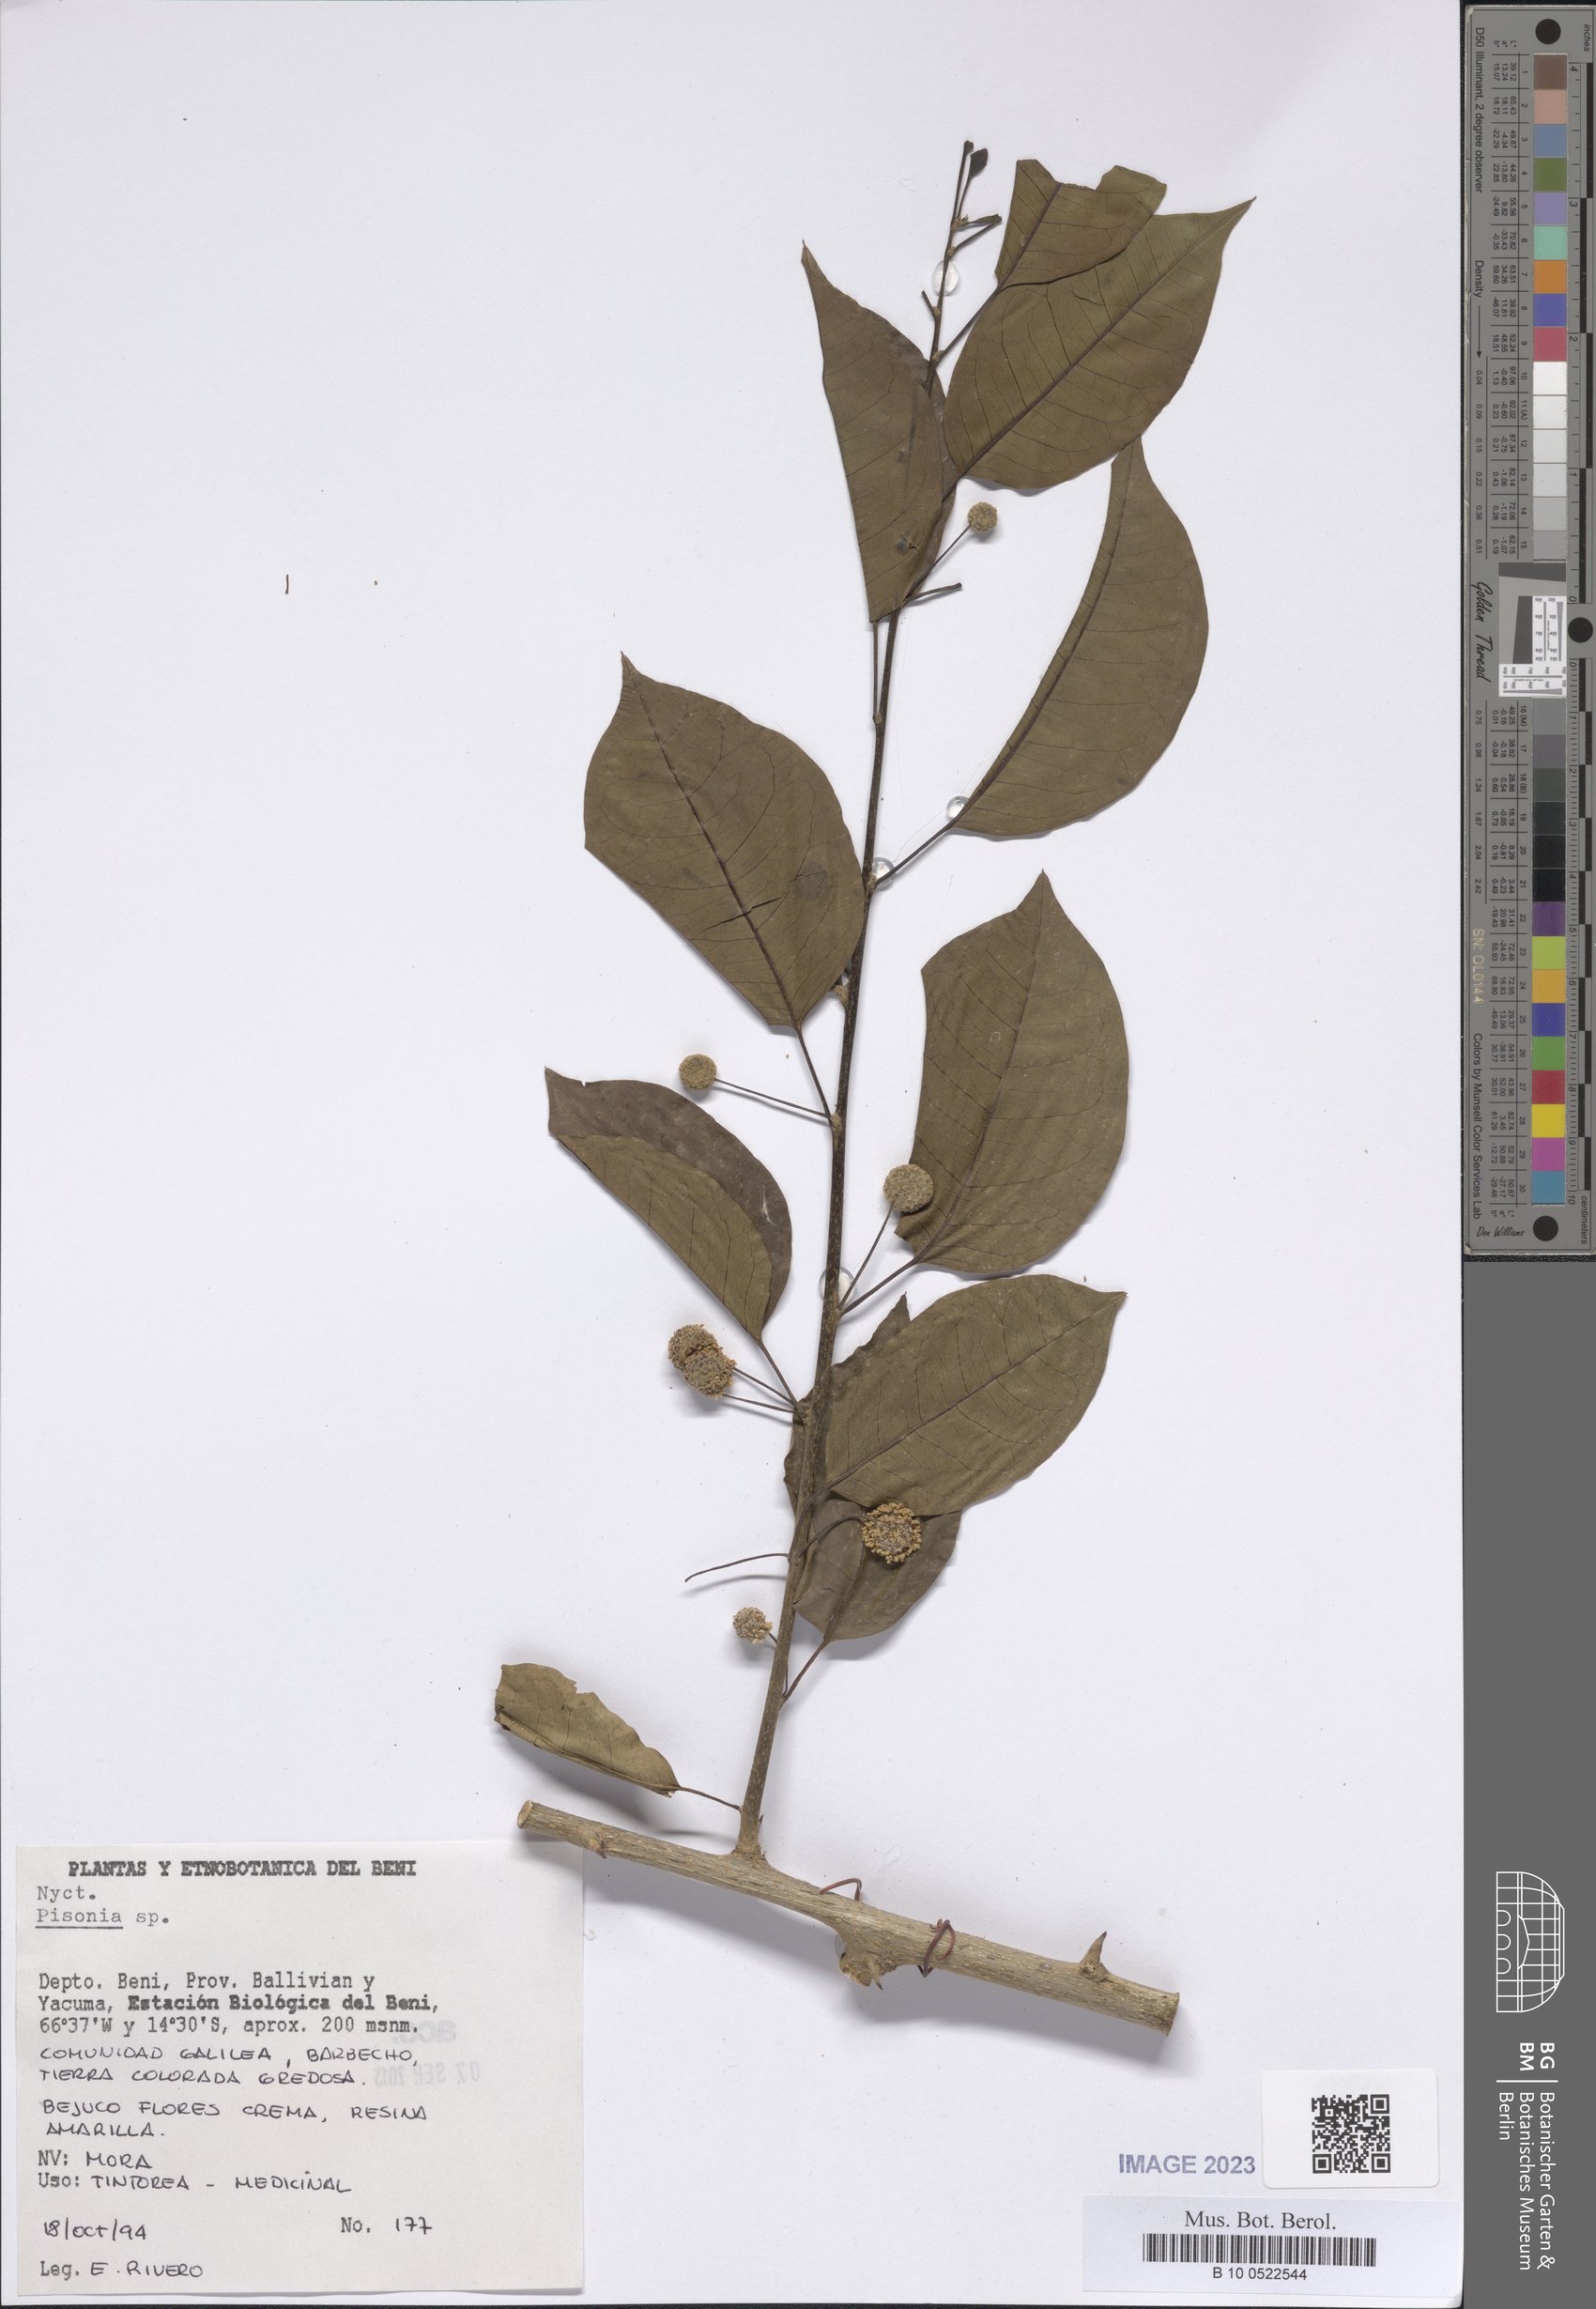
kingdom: Plantae
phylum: Tracheophyta
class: Magnoliopsida
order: Caryophyllales
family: Nyctaginaceae
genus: Pisonia
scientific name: Pisonia
